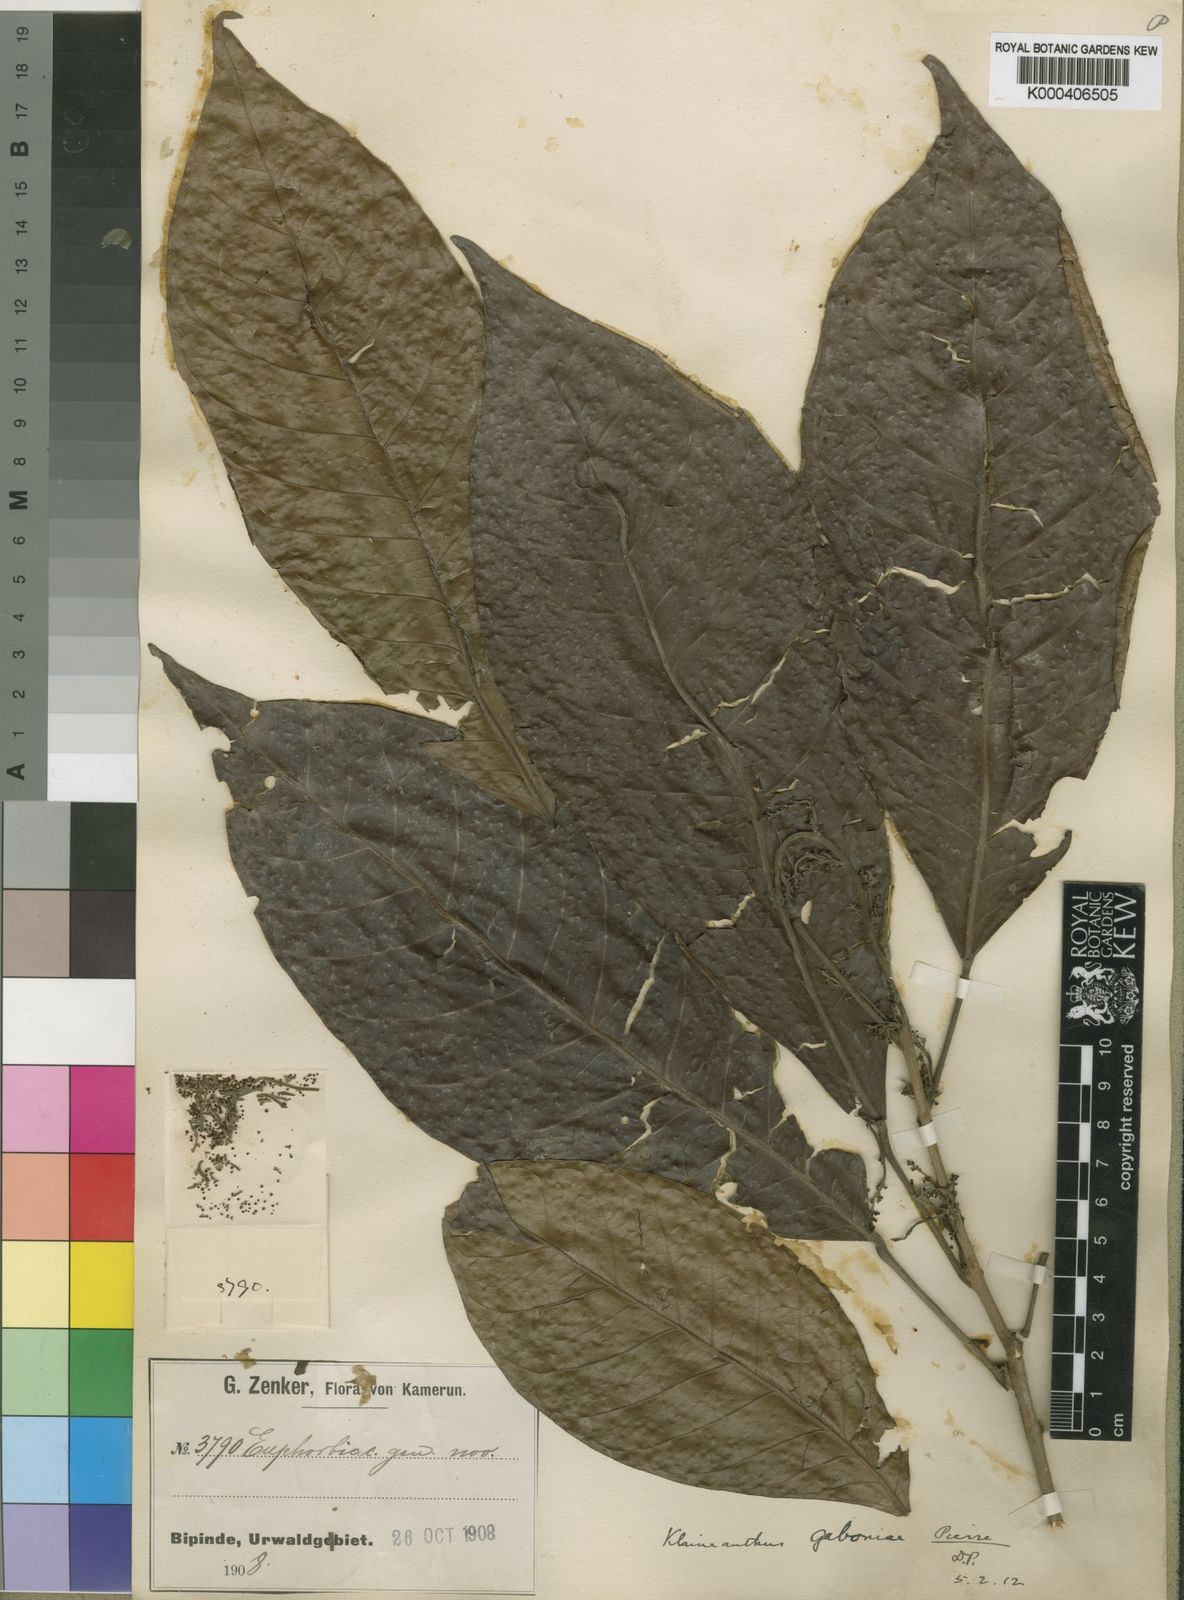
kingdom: Plantae
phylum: Tracheophyta
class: Magnoliopsida
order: Malpighiales
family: Euphorbiaceae
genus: Klaineanthus
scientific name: Klaineanthus
